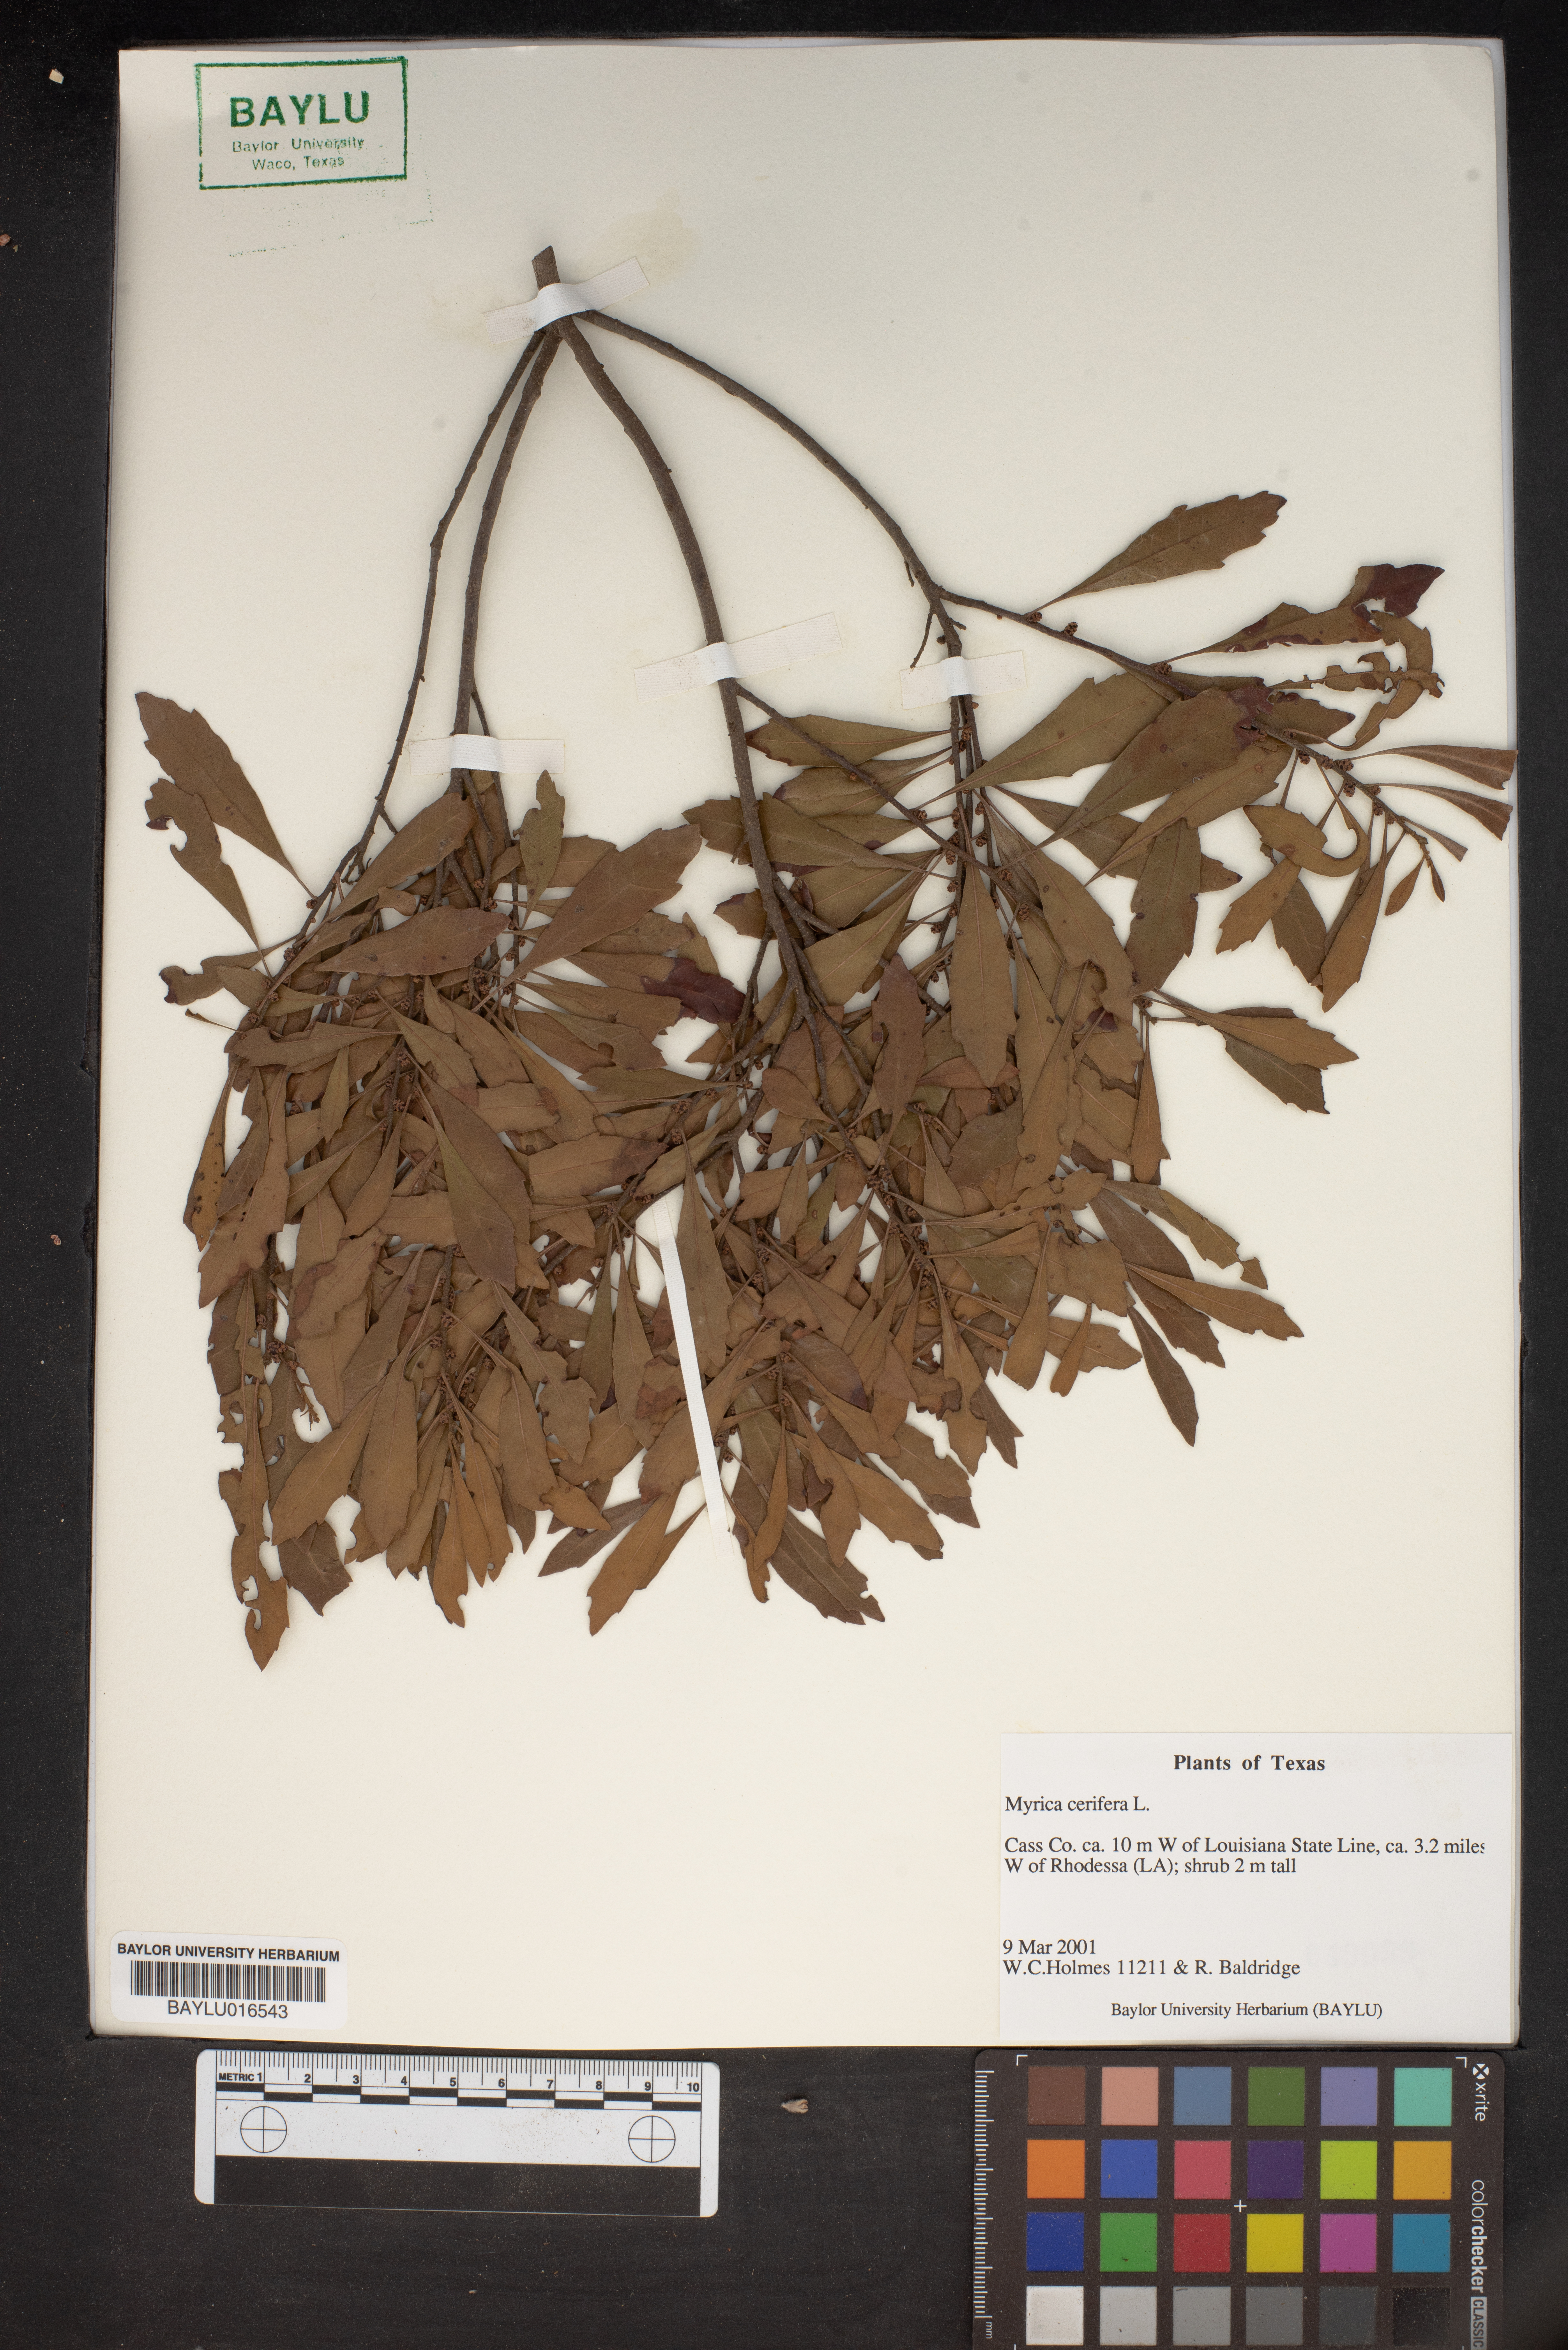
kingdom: Plantae
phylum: Tracheophyta
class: Magnoliopsida
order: Fagales
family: Myricaceae
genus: Morella
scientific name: Morella cerifera
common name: Wax myrtle
